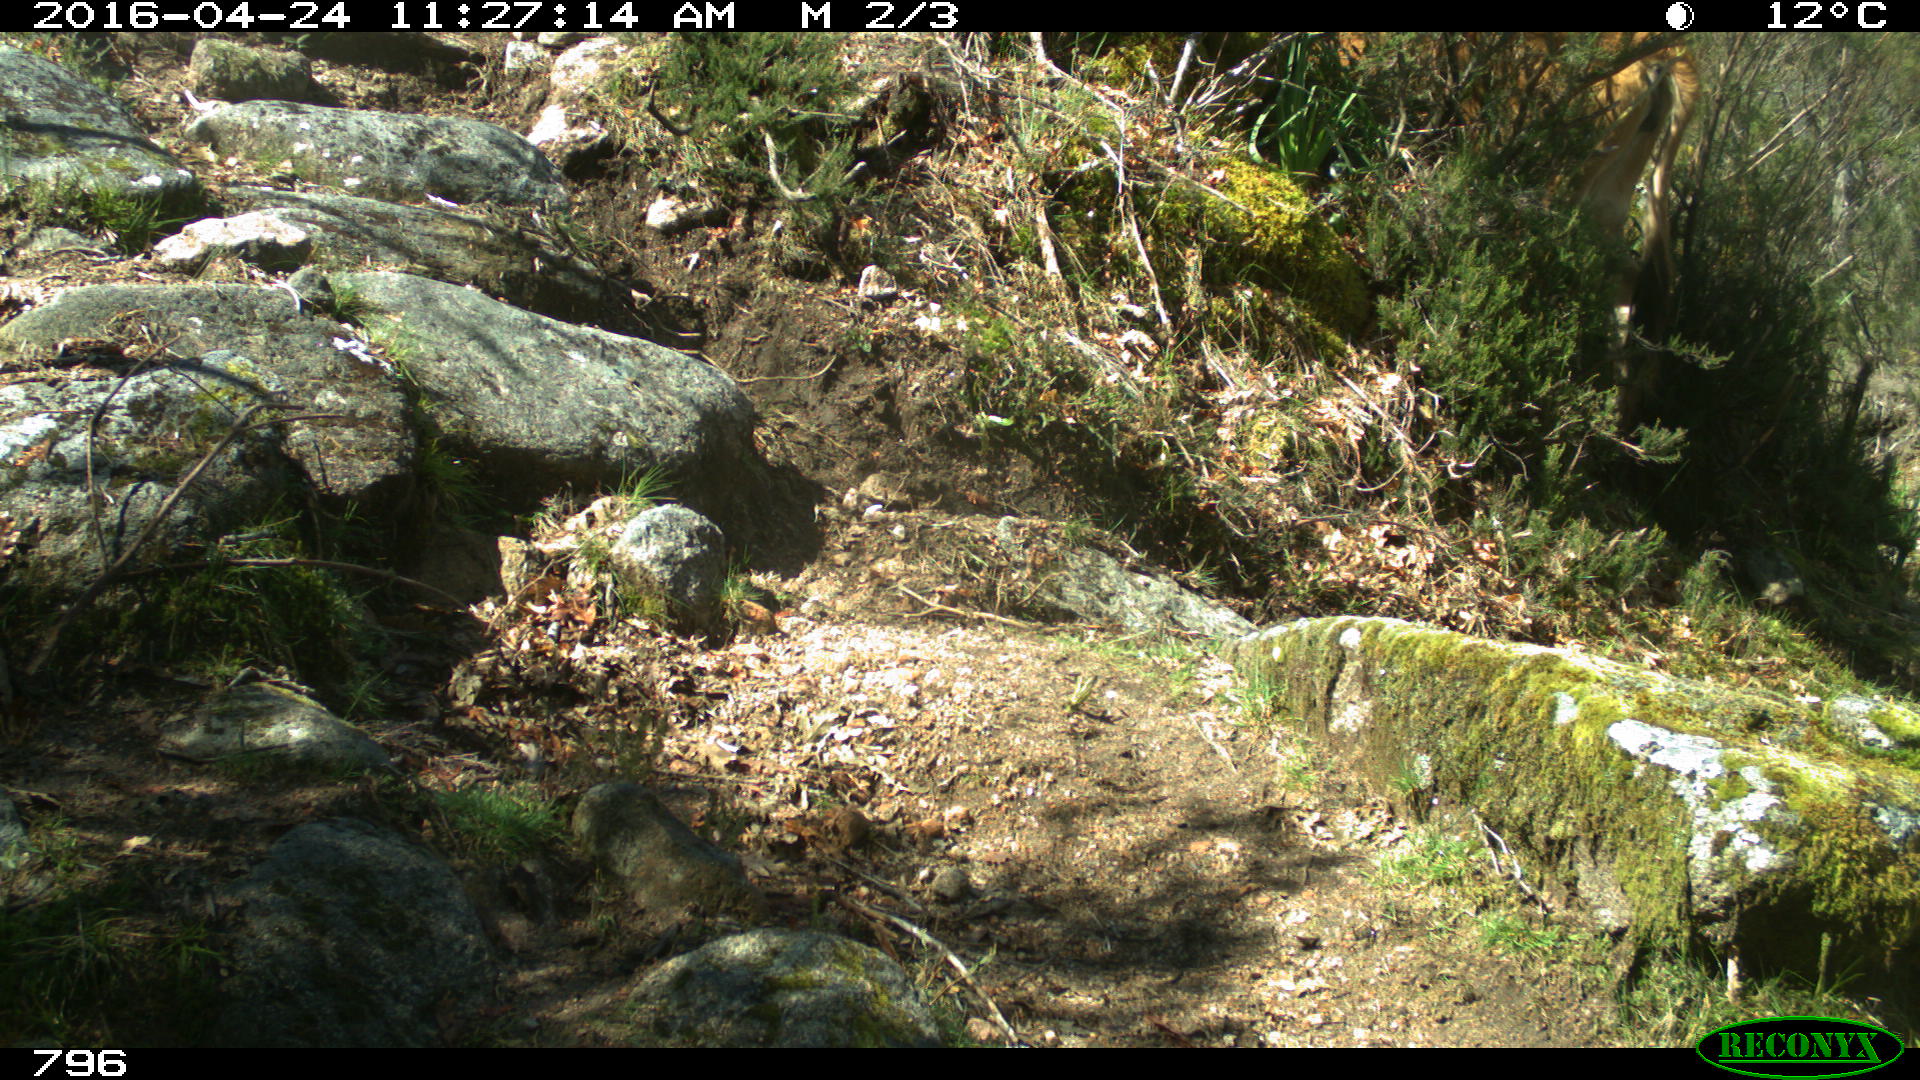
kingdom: Animalia
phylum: Chordata
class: Mammalia
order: Artiodactyla
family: Bovidae
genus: Bos
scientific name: Bos taurus
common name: Domesticated cattle
